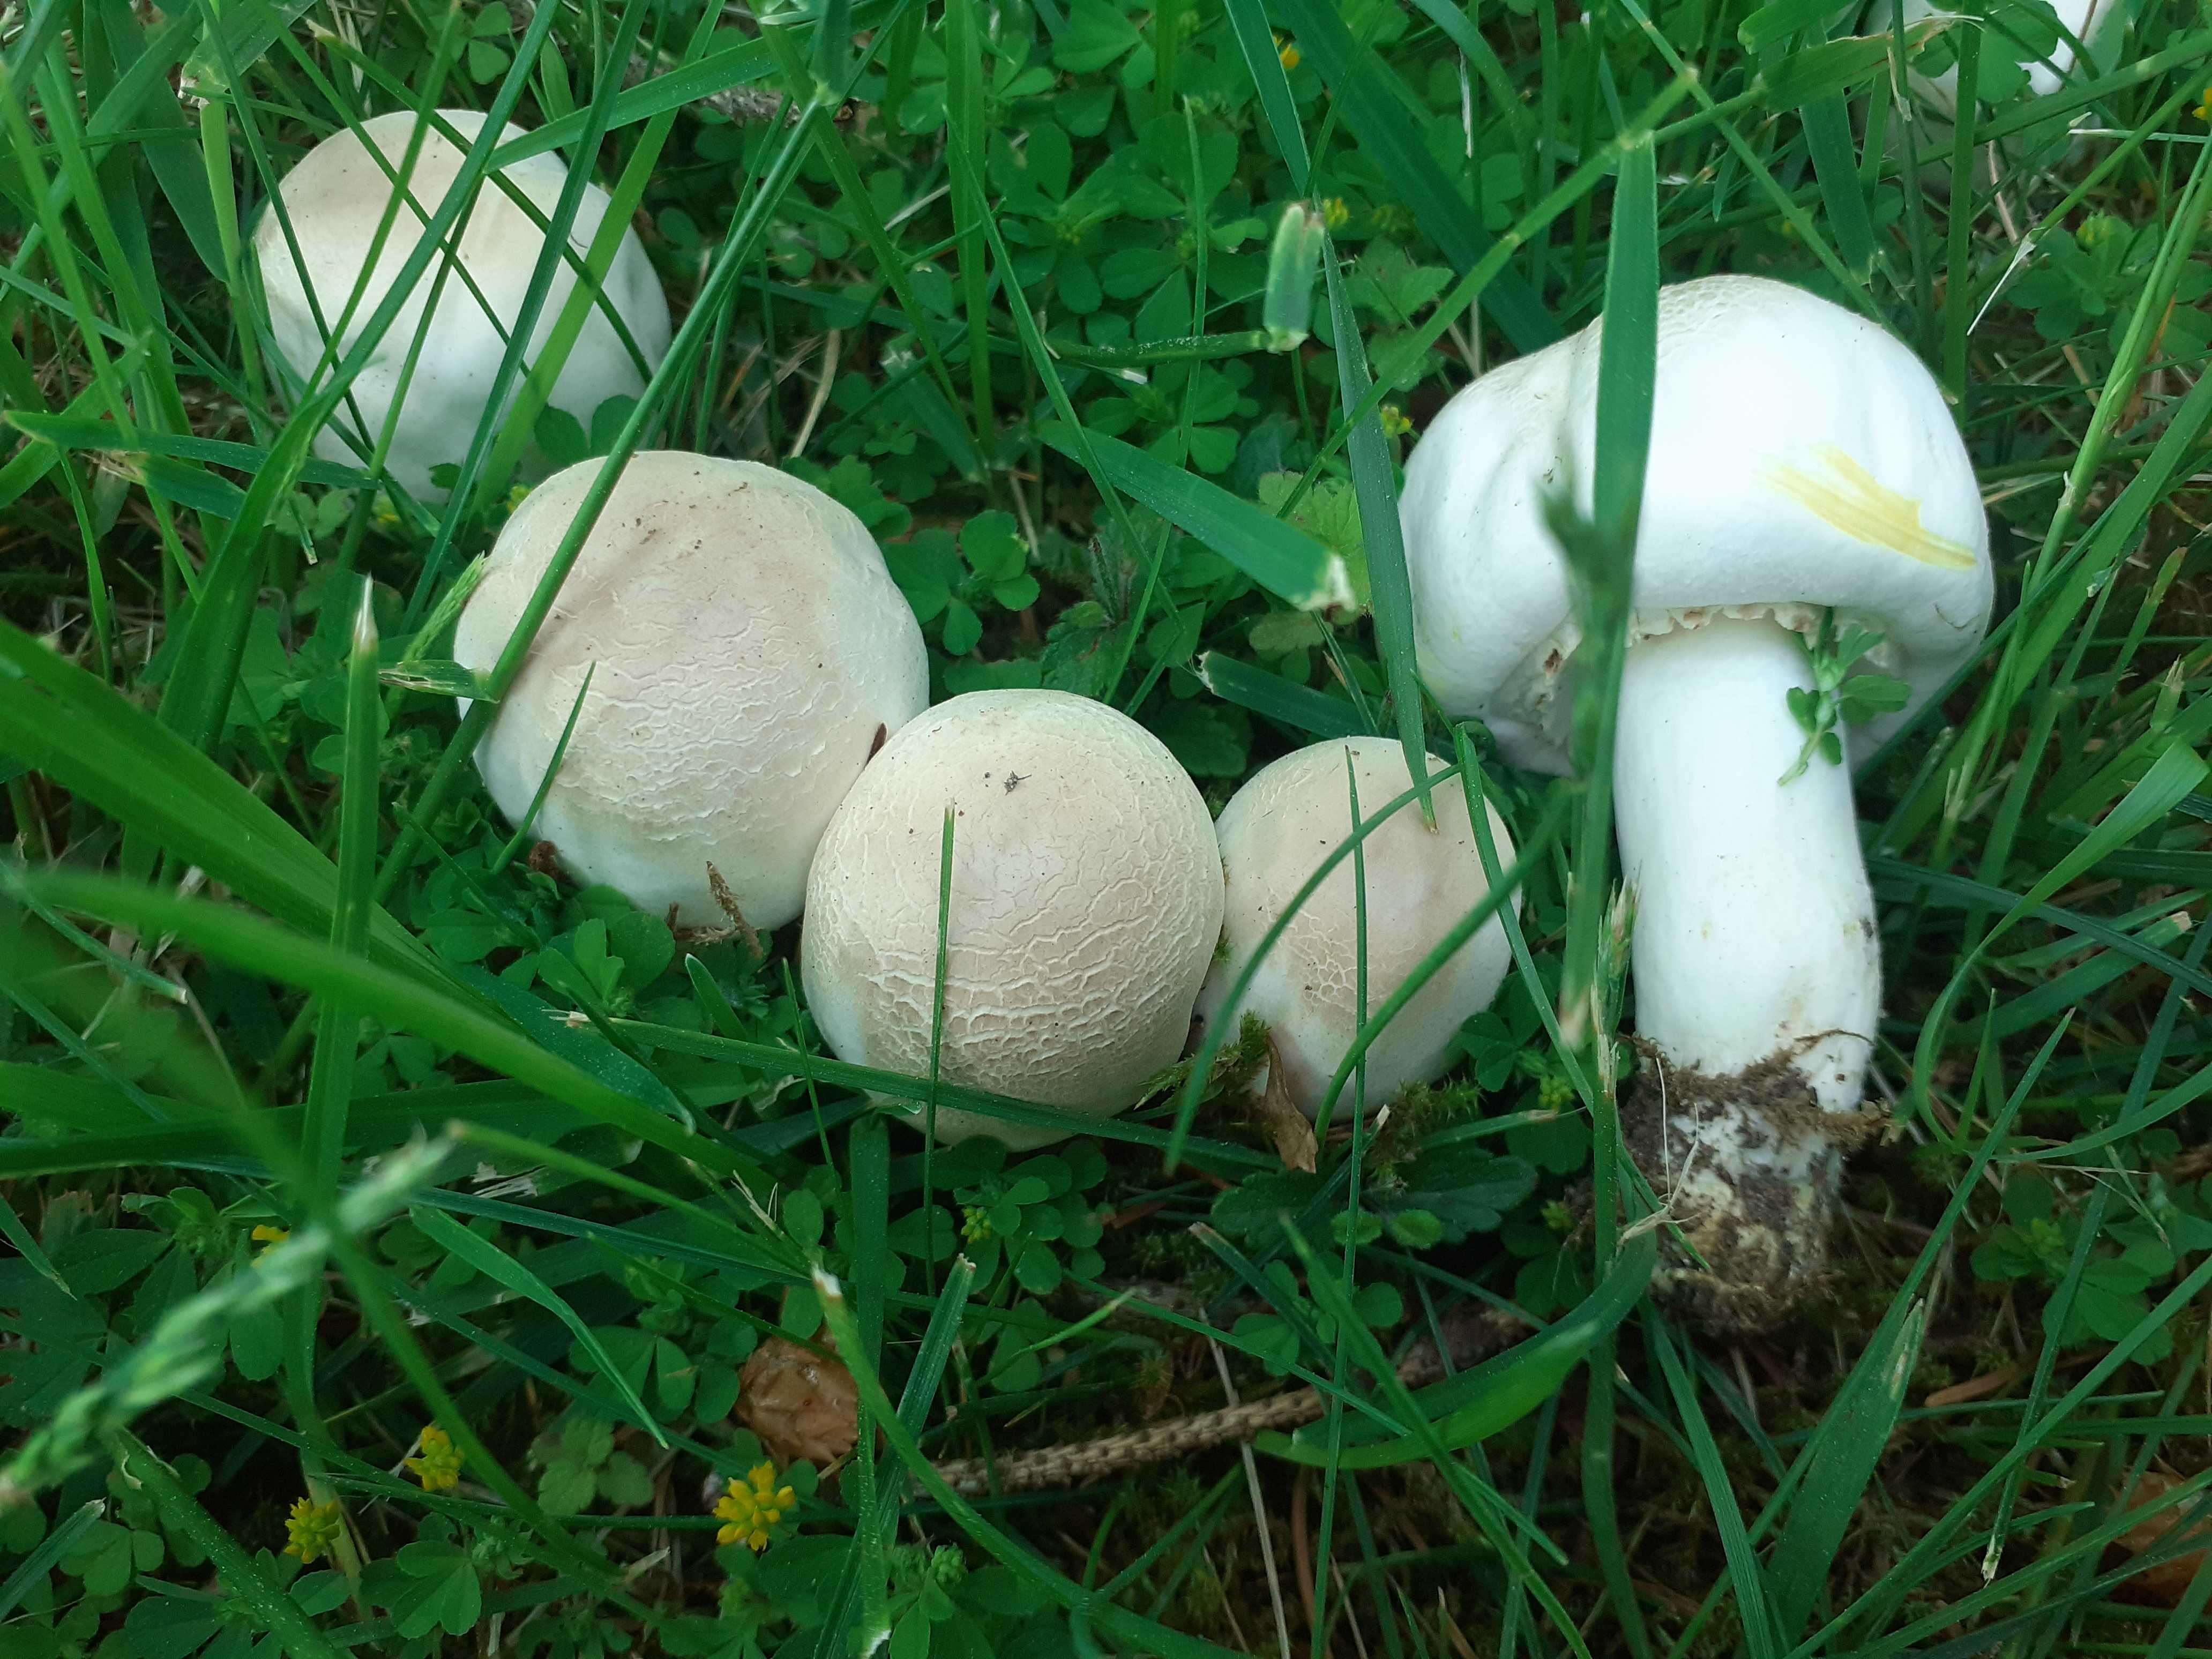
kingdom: Fungi
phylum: Basidiomycota
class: Agaricomycetes
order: Agaricales
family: Agaricaceae
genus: Agaricus
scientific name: Agaricus xanthodermus
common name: karbol-champignon
